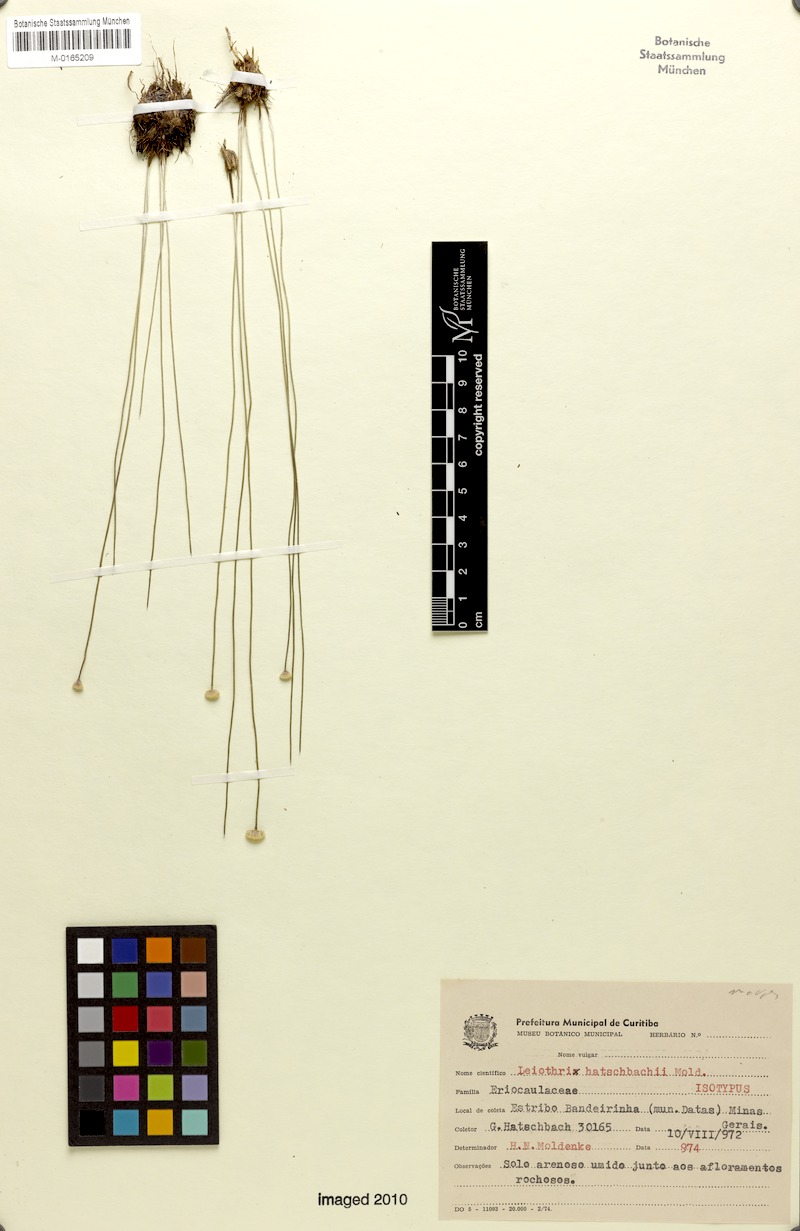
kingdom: Plantae
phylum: Tracheophyta
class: Liliopsida
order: Poales
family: Eriocaulaceae
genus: Leiothrix
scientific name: Leiothrix argentea
